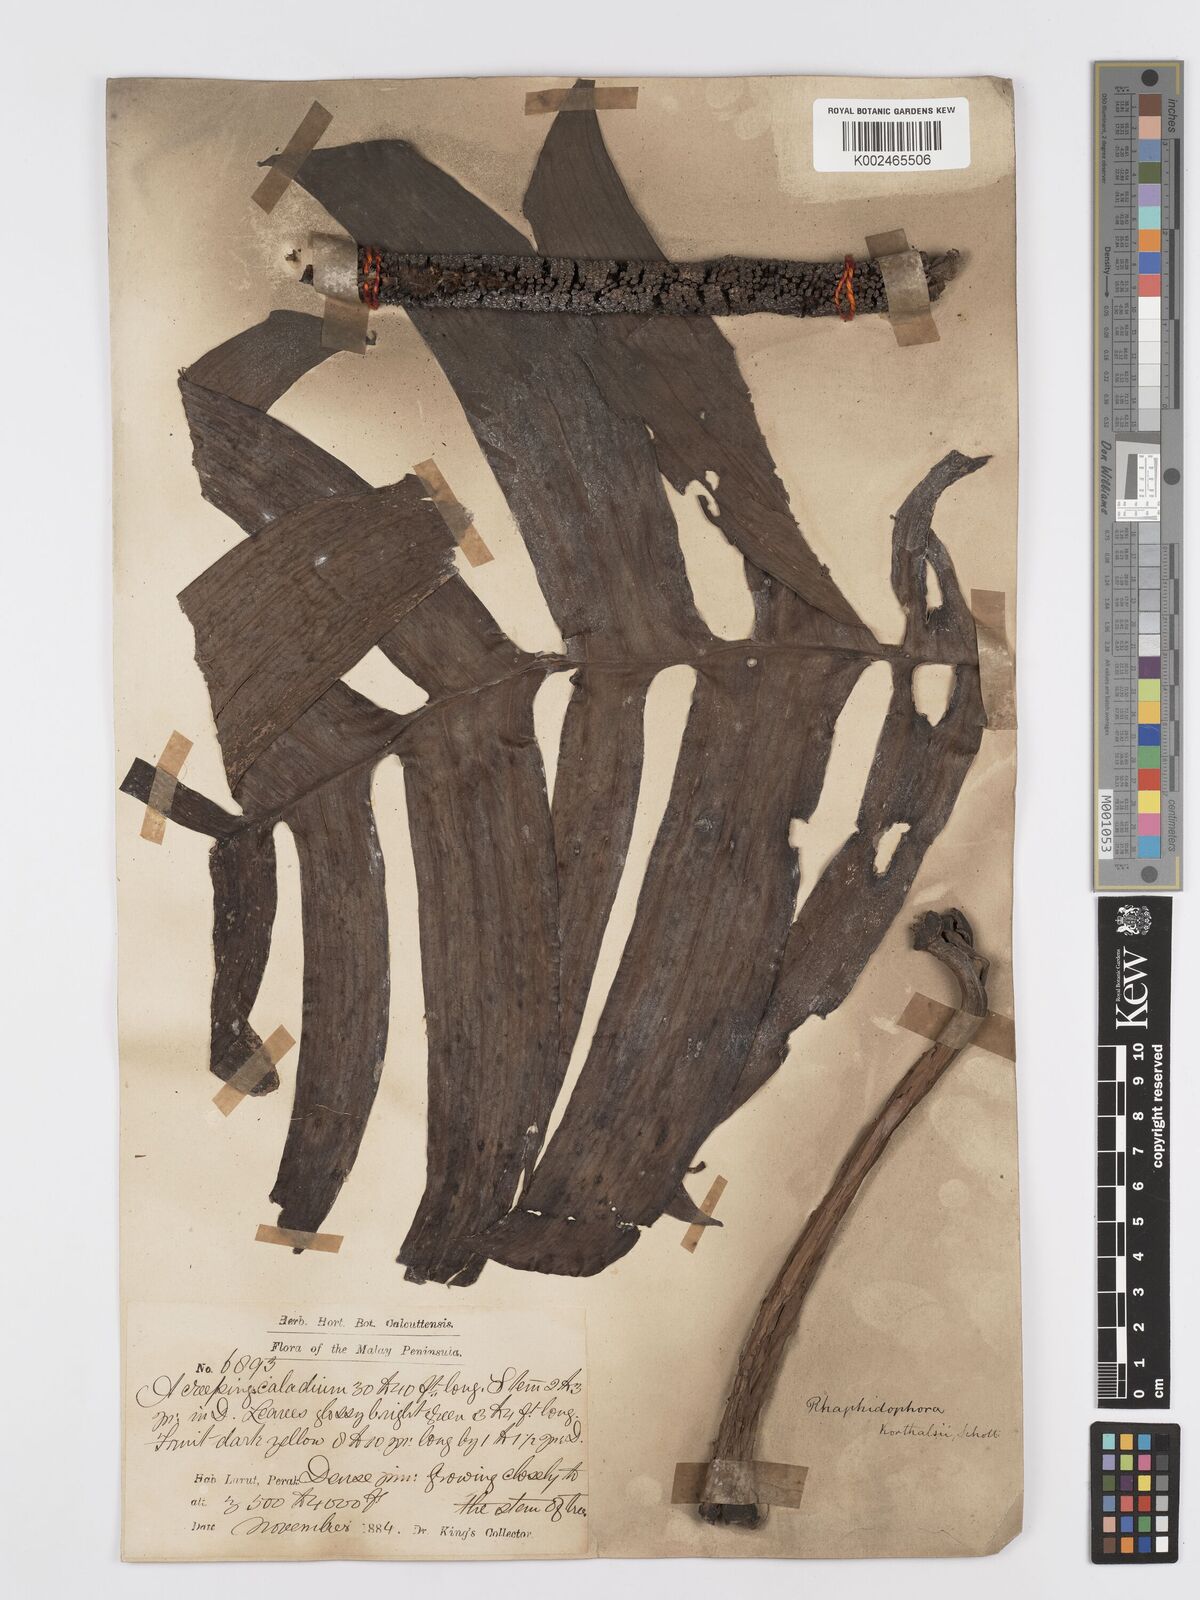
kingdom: Plantae
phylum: Tracheophyta
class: Liliopsida
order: Alismatales
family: Araceae
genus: Rhaphidophora
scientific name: Rhaphidophora korthalsii
